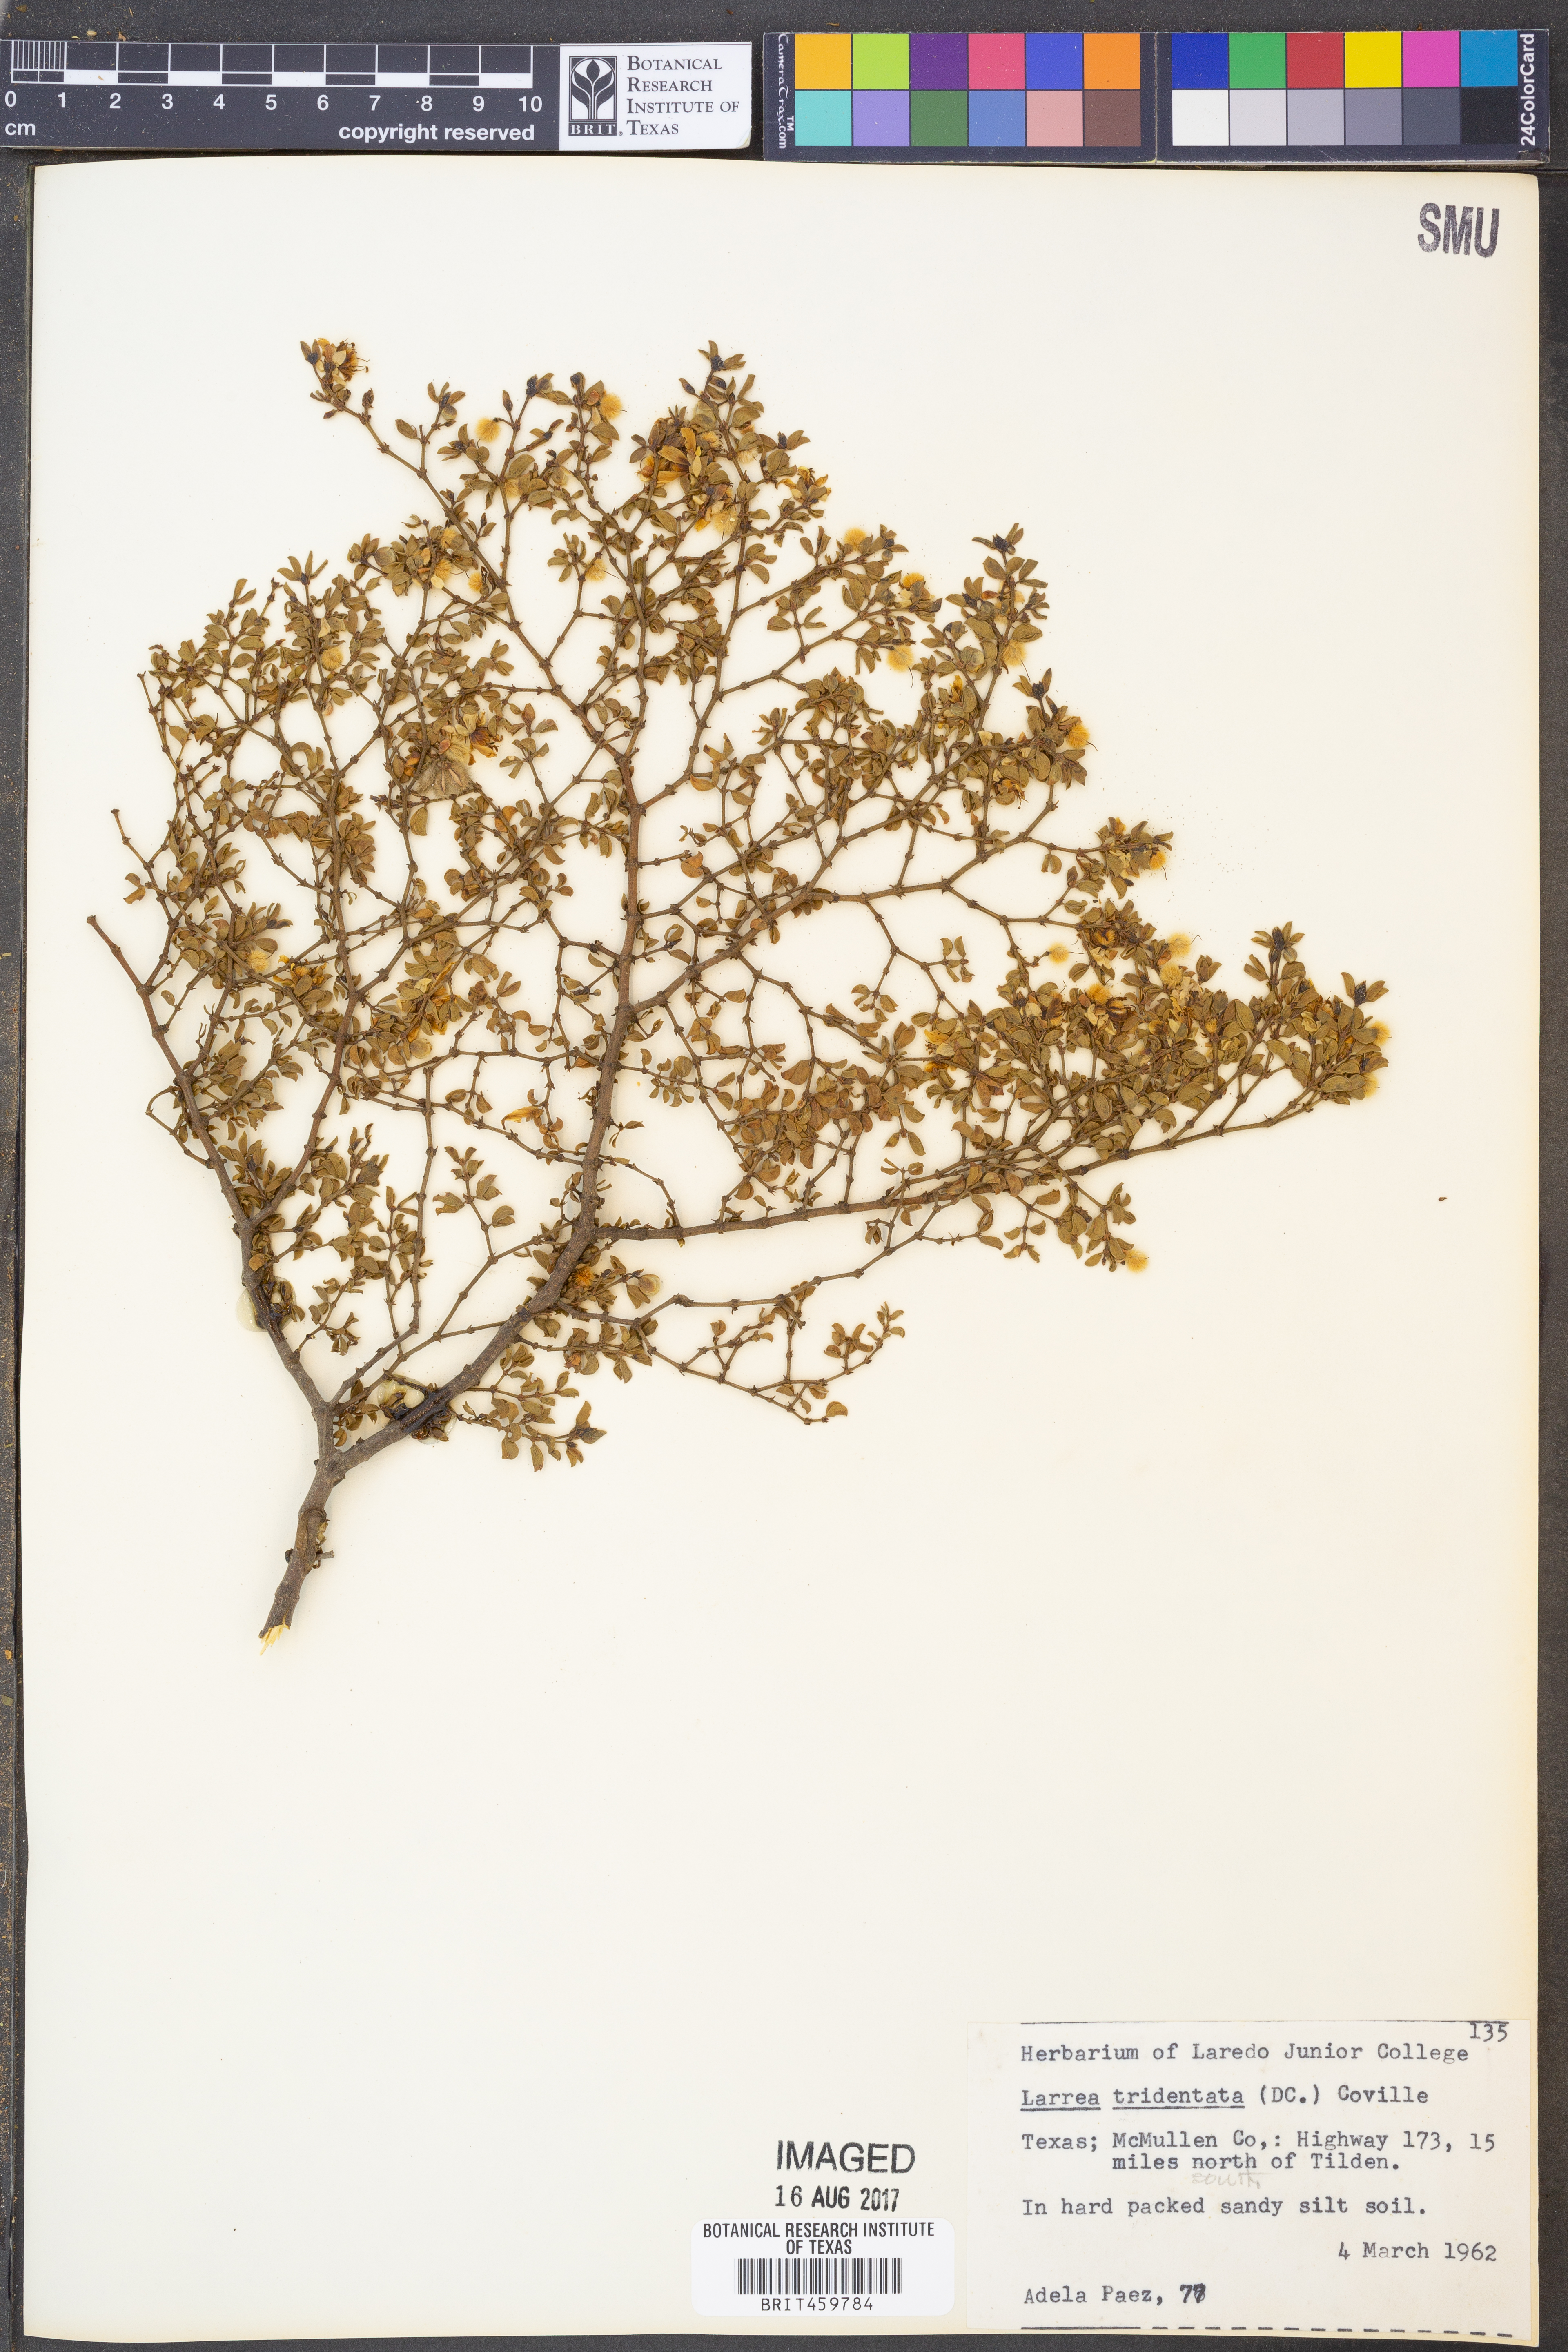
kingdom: Plantae
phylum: Tracheophyta
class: Magnoliopsida
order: Zygophyllales
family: Zygophyllaceae
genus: Larrea
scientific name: Larrea tridentata
